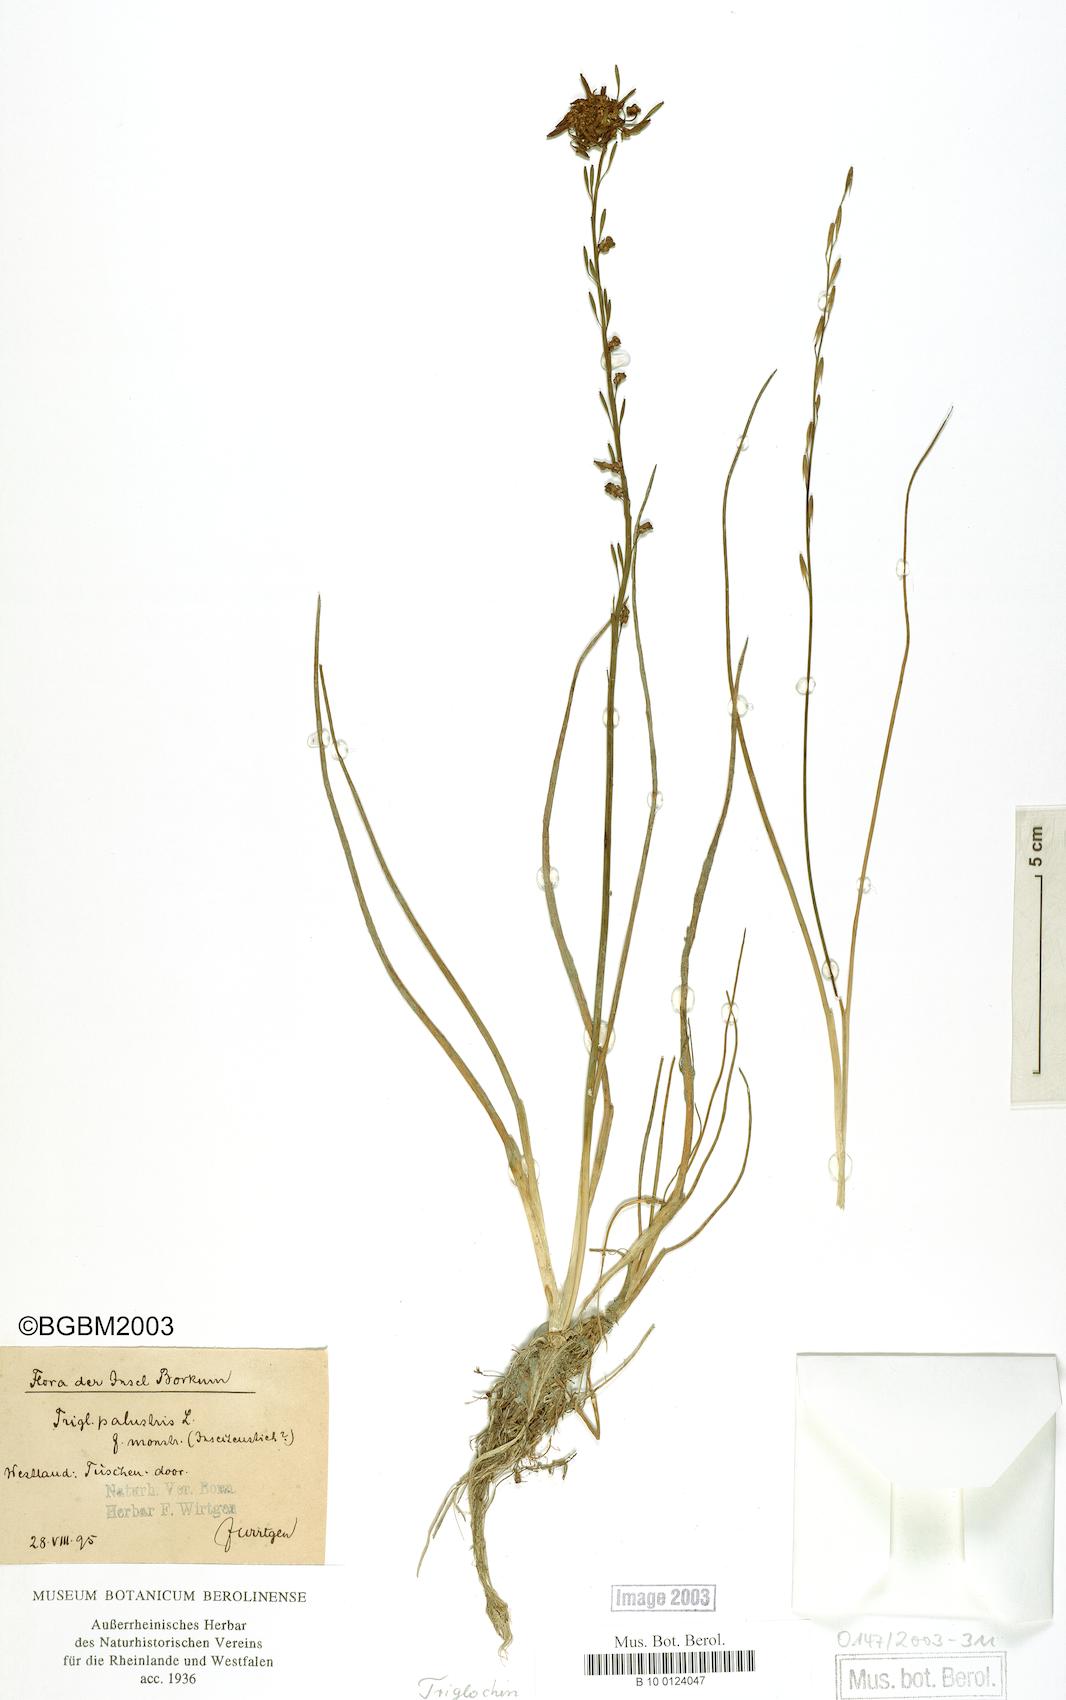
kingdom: Plantae
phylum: Tracheophyta
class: Liliopsida
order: Alismatales
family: Juncaginaceae
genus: Triglochin
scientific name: Triglochin palustris
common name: Marsh arrowgrass
